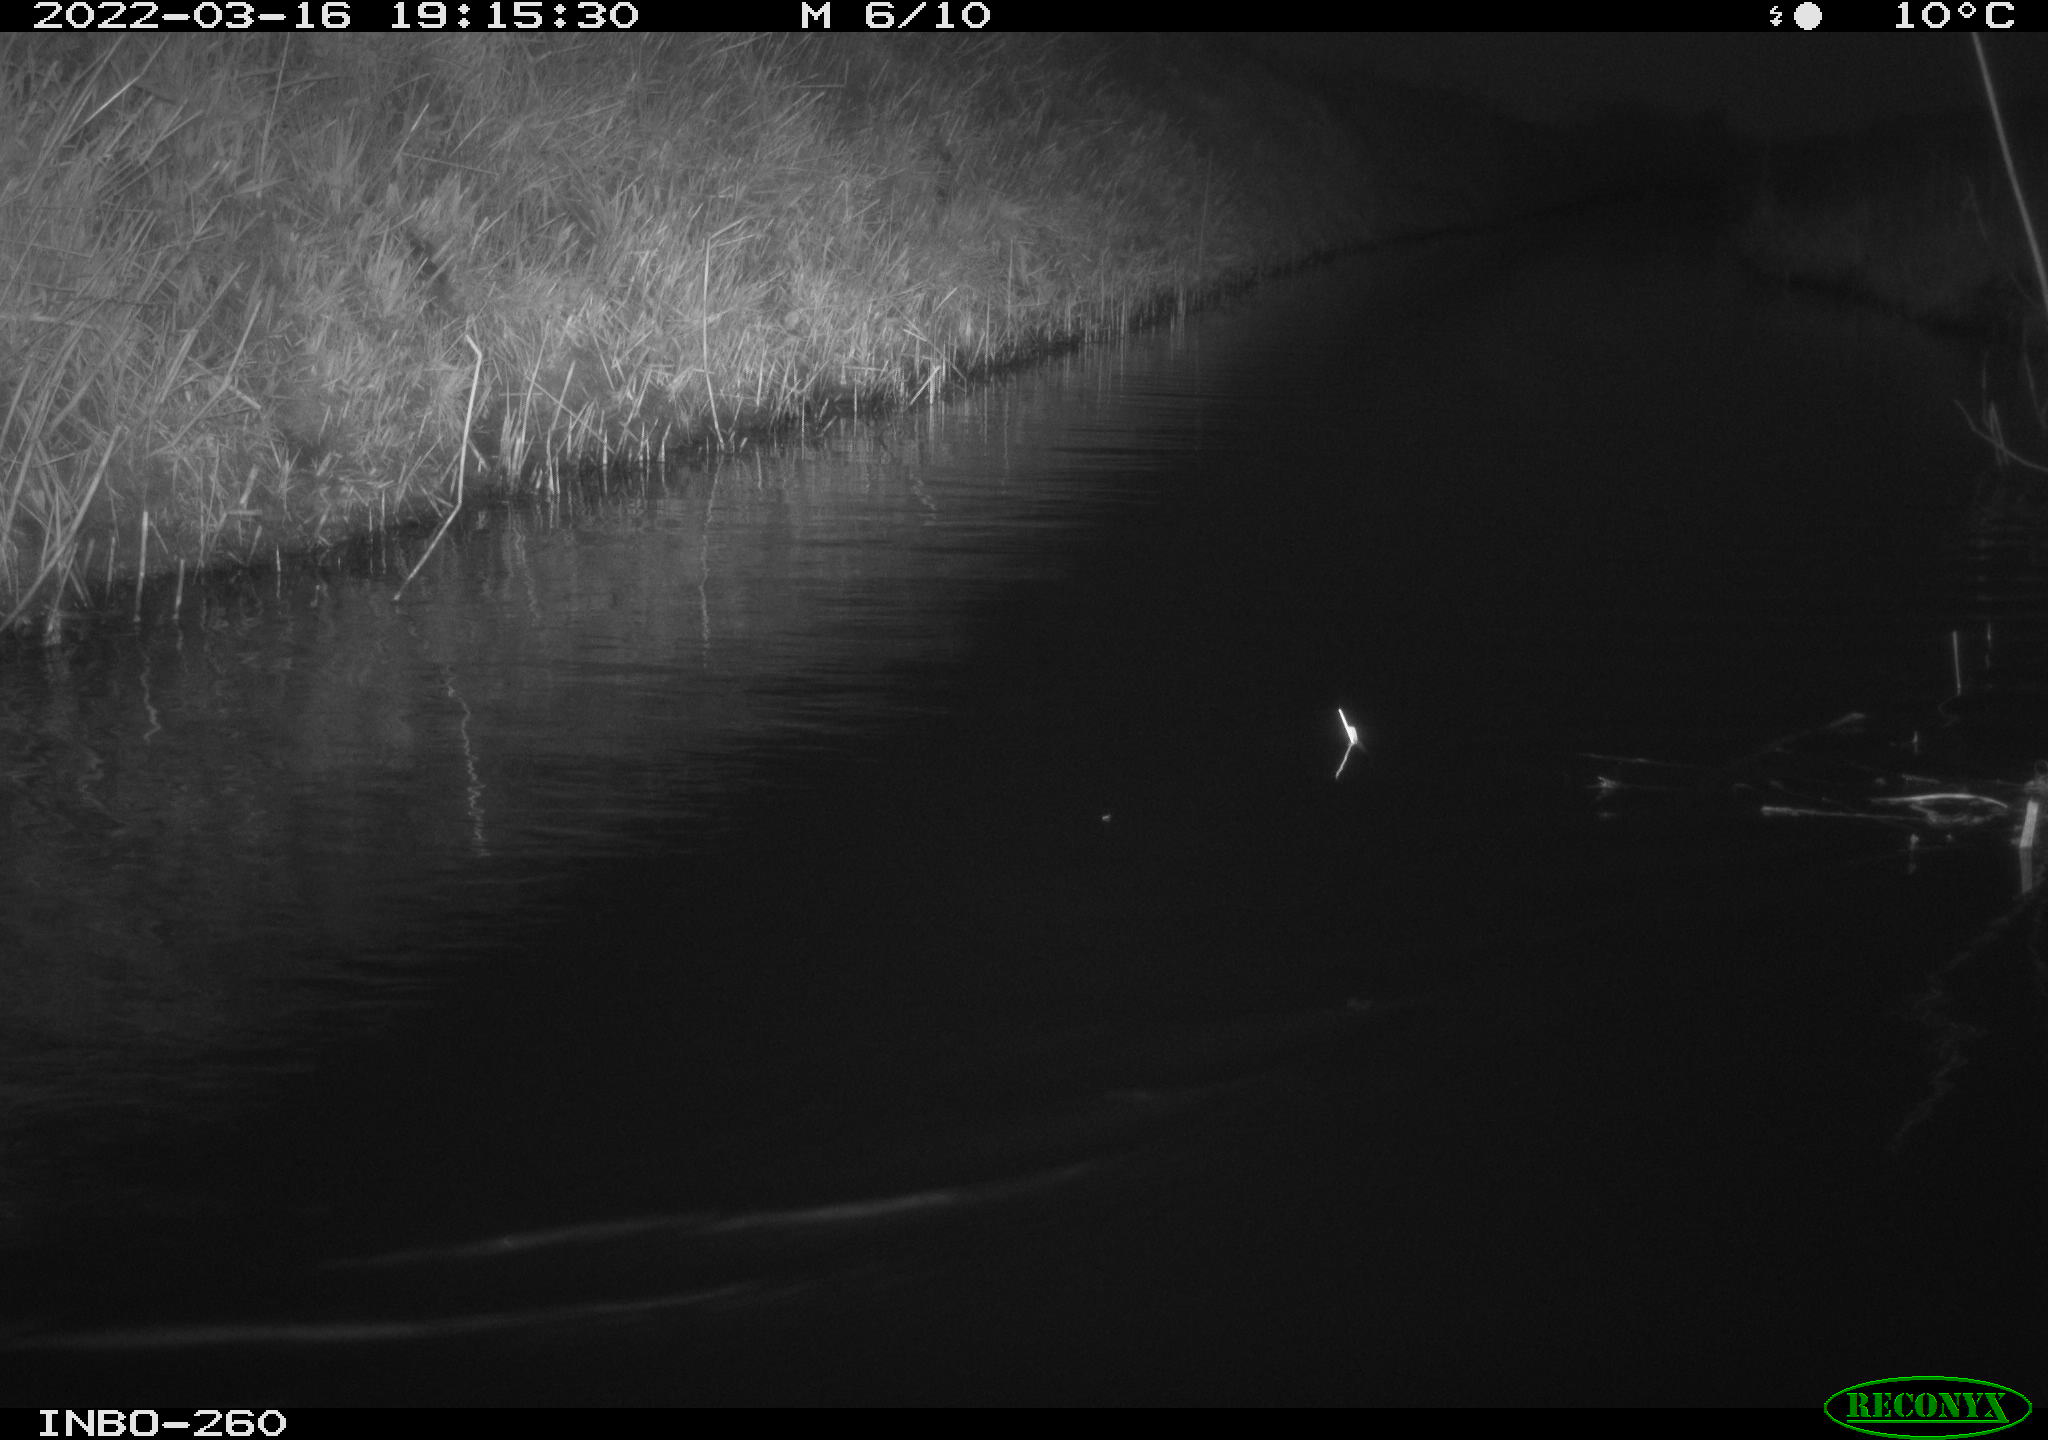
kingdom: Animalia
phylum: Chordata
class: Aves
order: Gruiformes
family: Rallidae
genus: Fulica
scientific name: Fulica atra
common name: Eurasian coot
